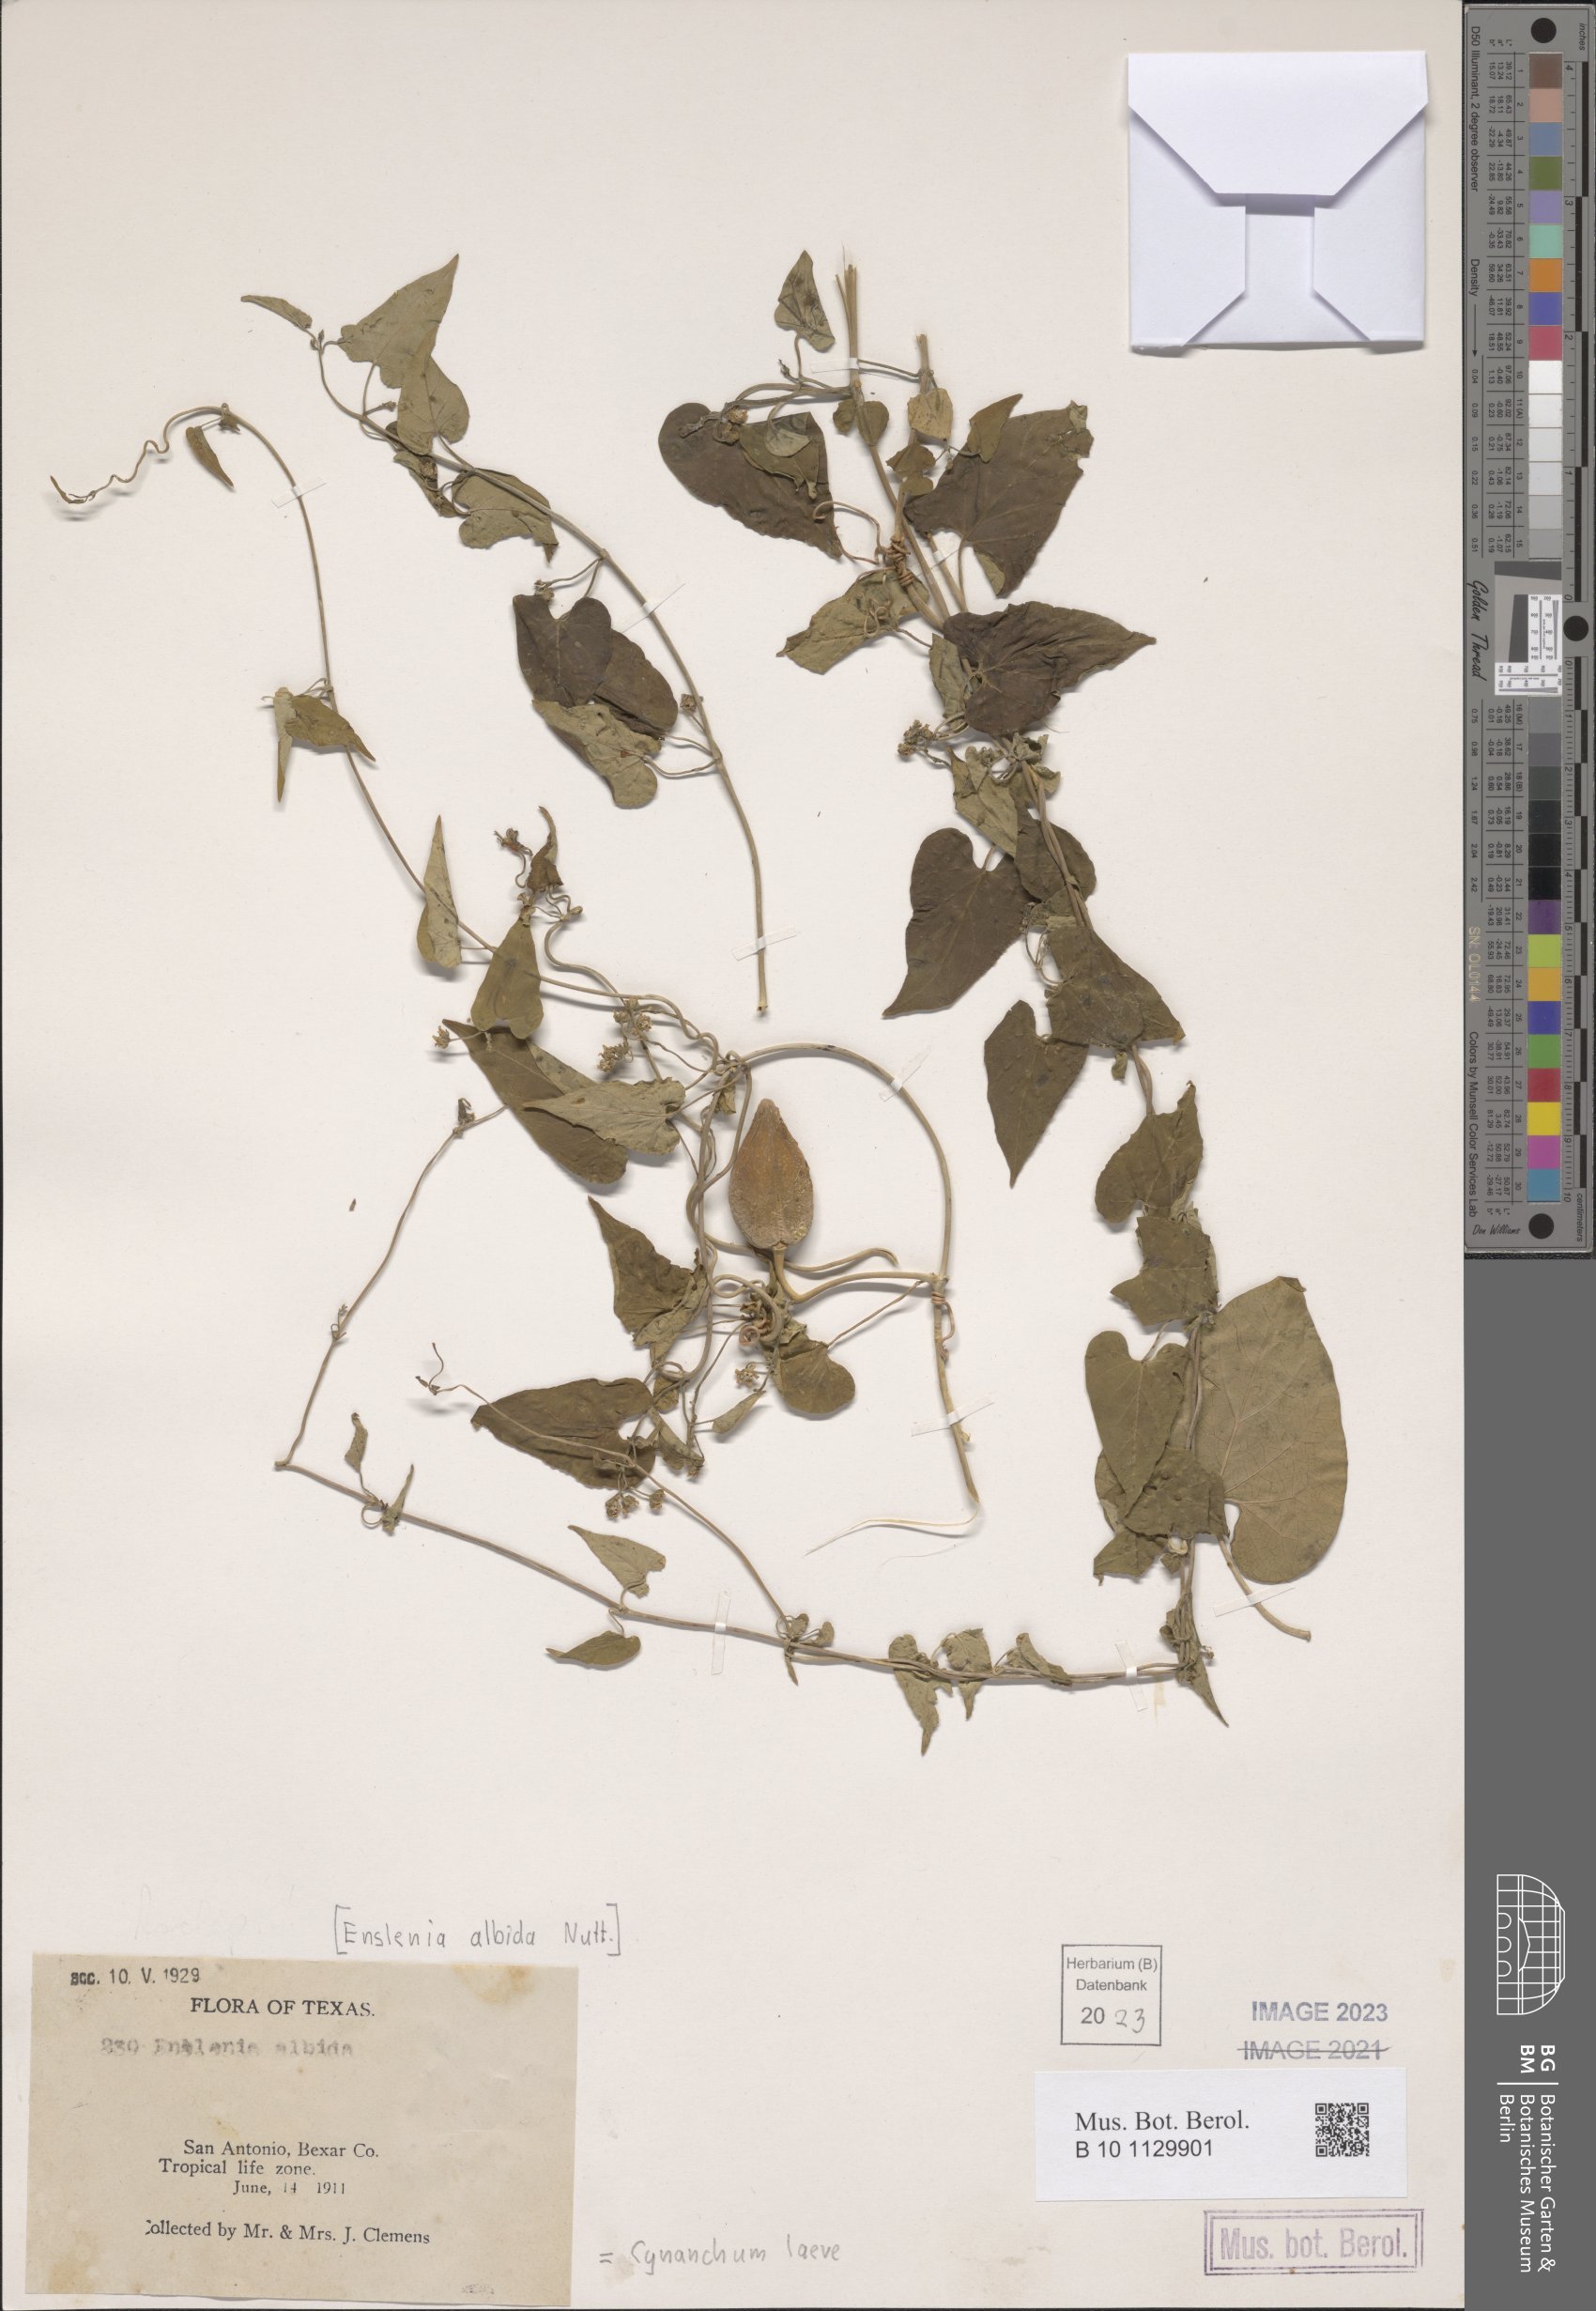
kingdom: Plantae
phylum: Tracheophyta
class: Magnoliopsida
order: Gentianales
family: Apocynaceae
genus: Cynanchum
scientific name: Cynanchum laeve
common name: Sandvine
